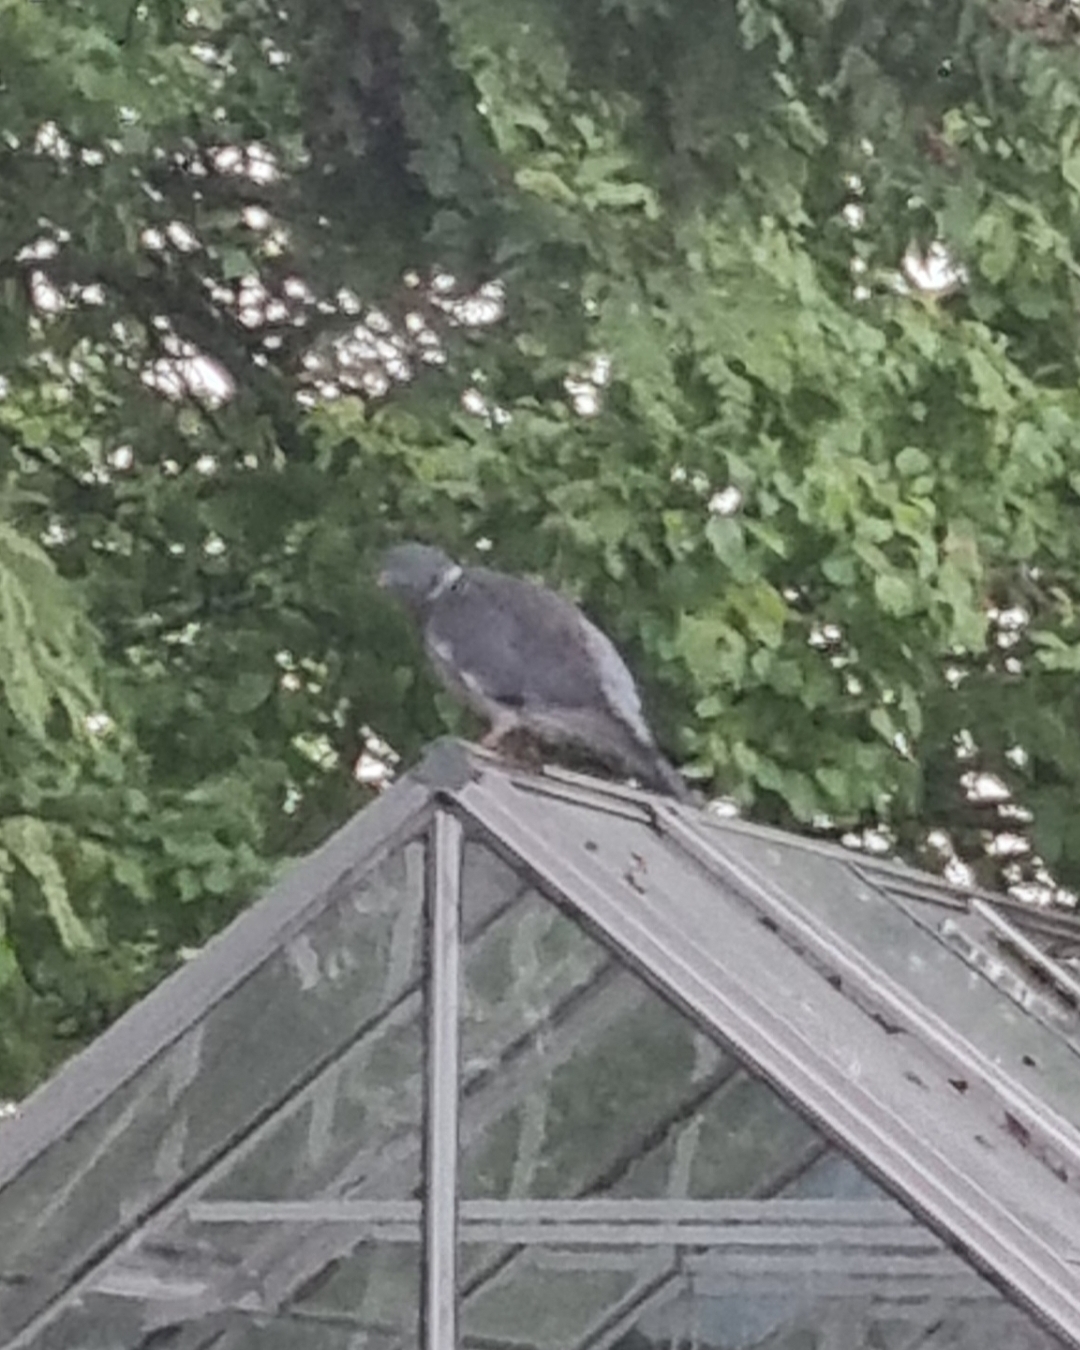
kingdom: Animalia
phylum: Chordata
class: Aves
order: Columbiformes
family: Columbidae
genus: Columba
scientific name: Columba palumbus
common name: Ringdue
